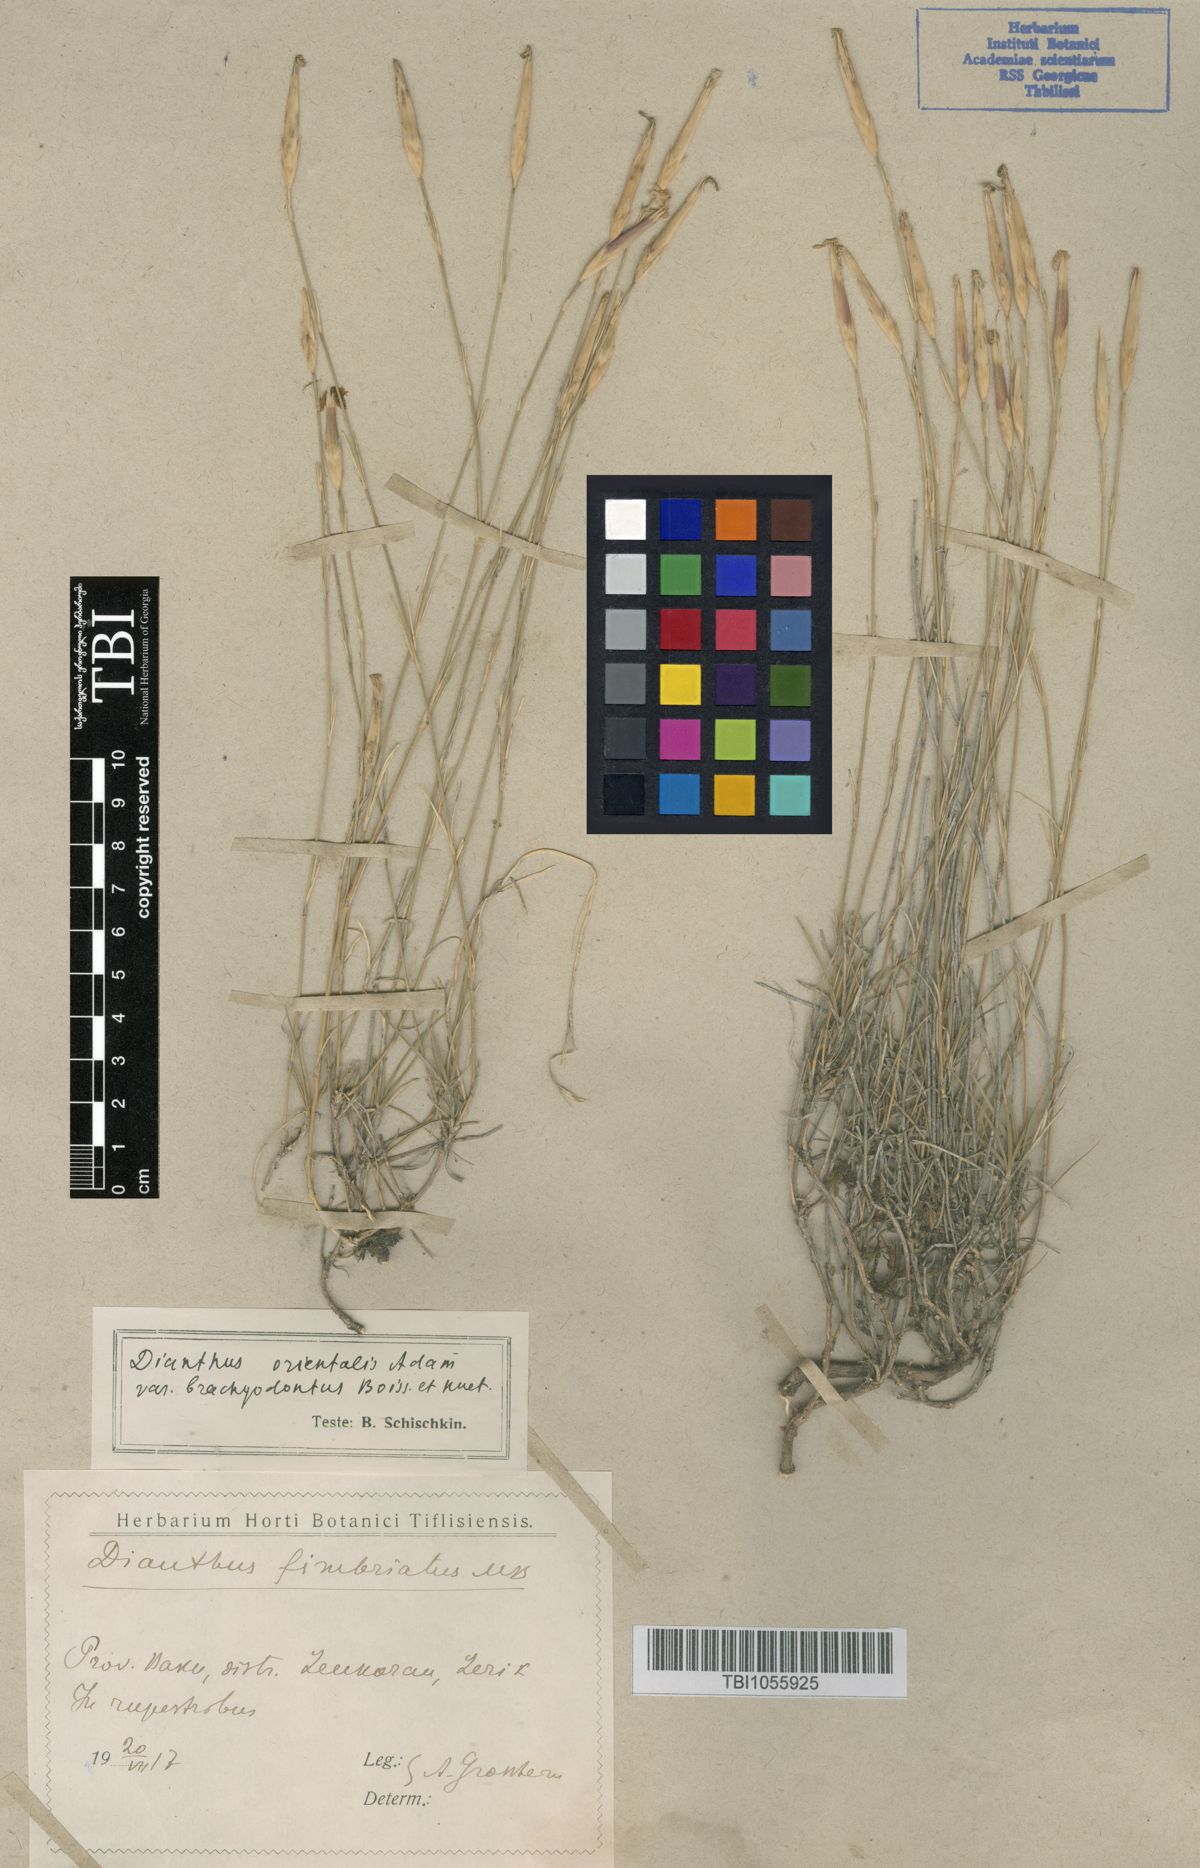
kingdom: Plantae
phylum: Tracheophyta
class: Magnoliopsida
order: Caryophyllales
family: Caryophyllaceae
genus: Dianthus
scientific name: Dianthus orientalis
